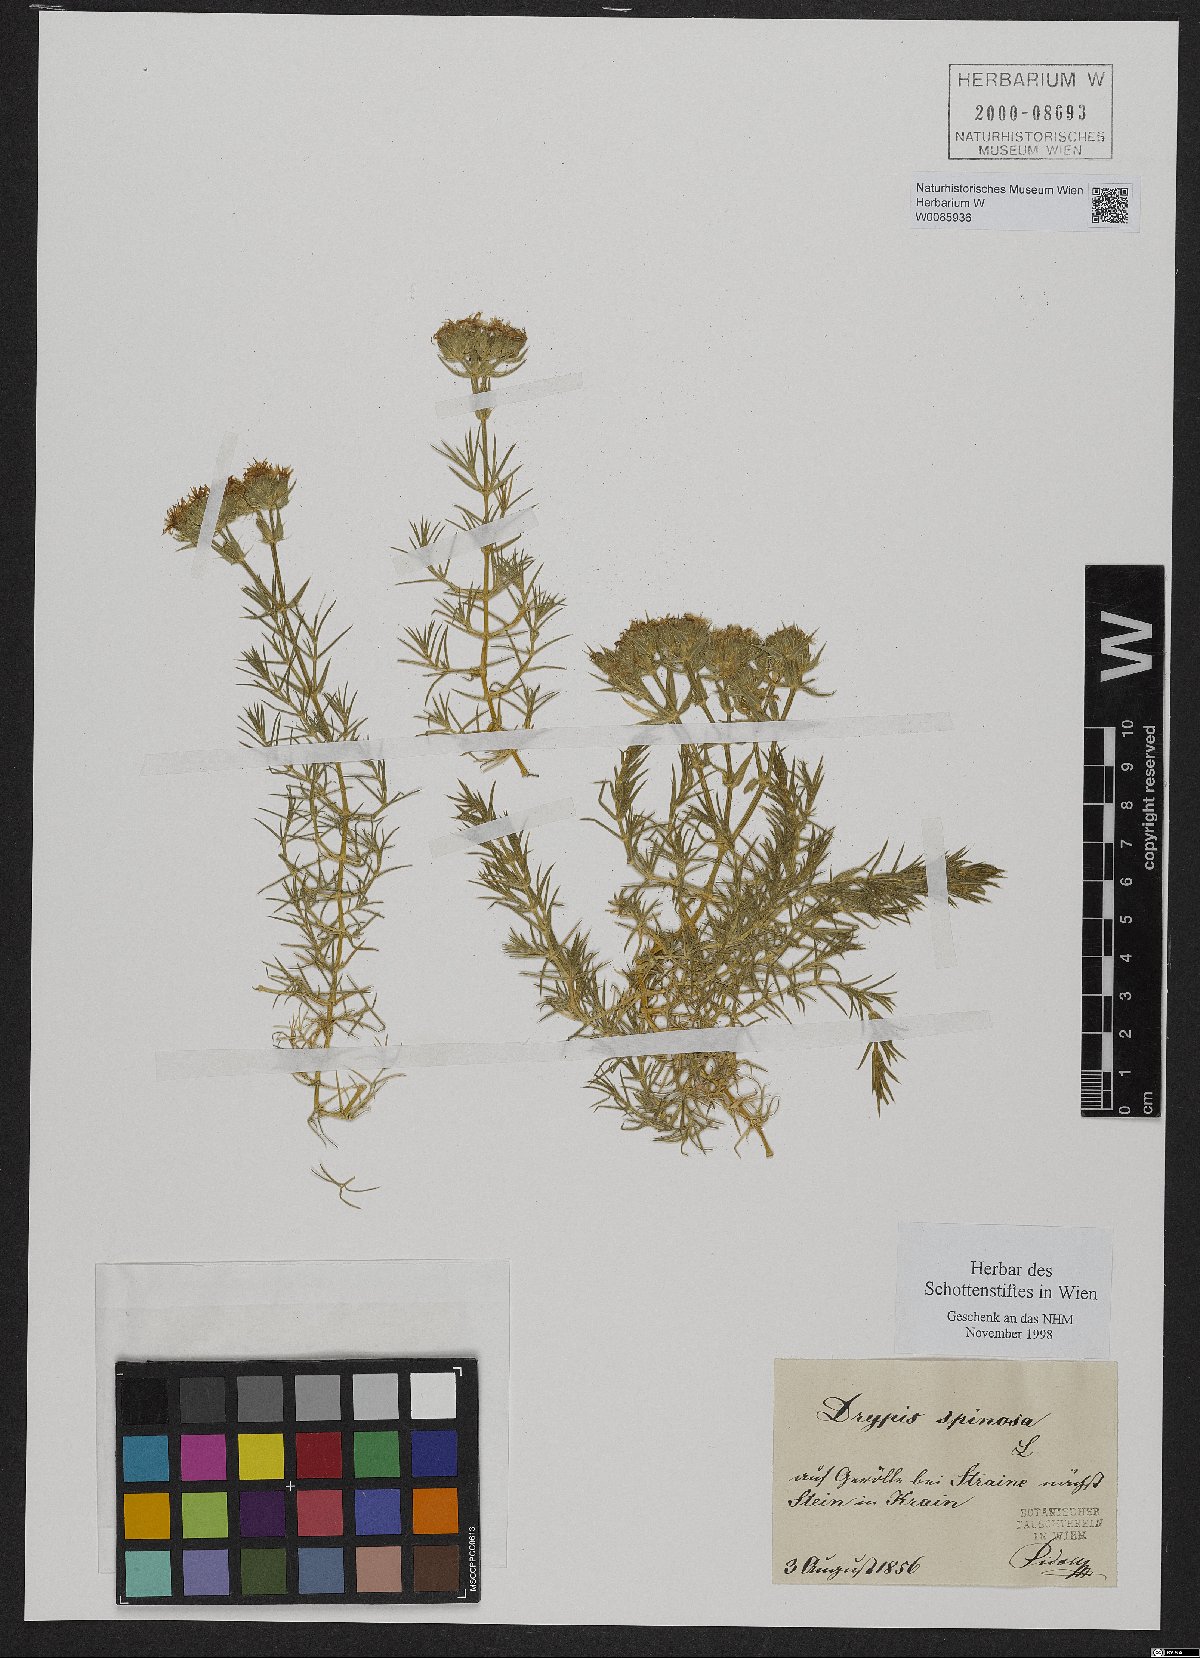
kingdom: Plantae
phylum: Tracheophyta
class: Magnoliopsida
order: Caryophyllales
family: Caryophyllaceae
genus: Drypis
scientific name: Drypis spinosa
